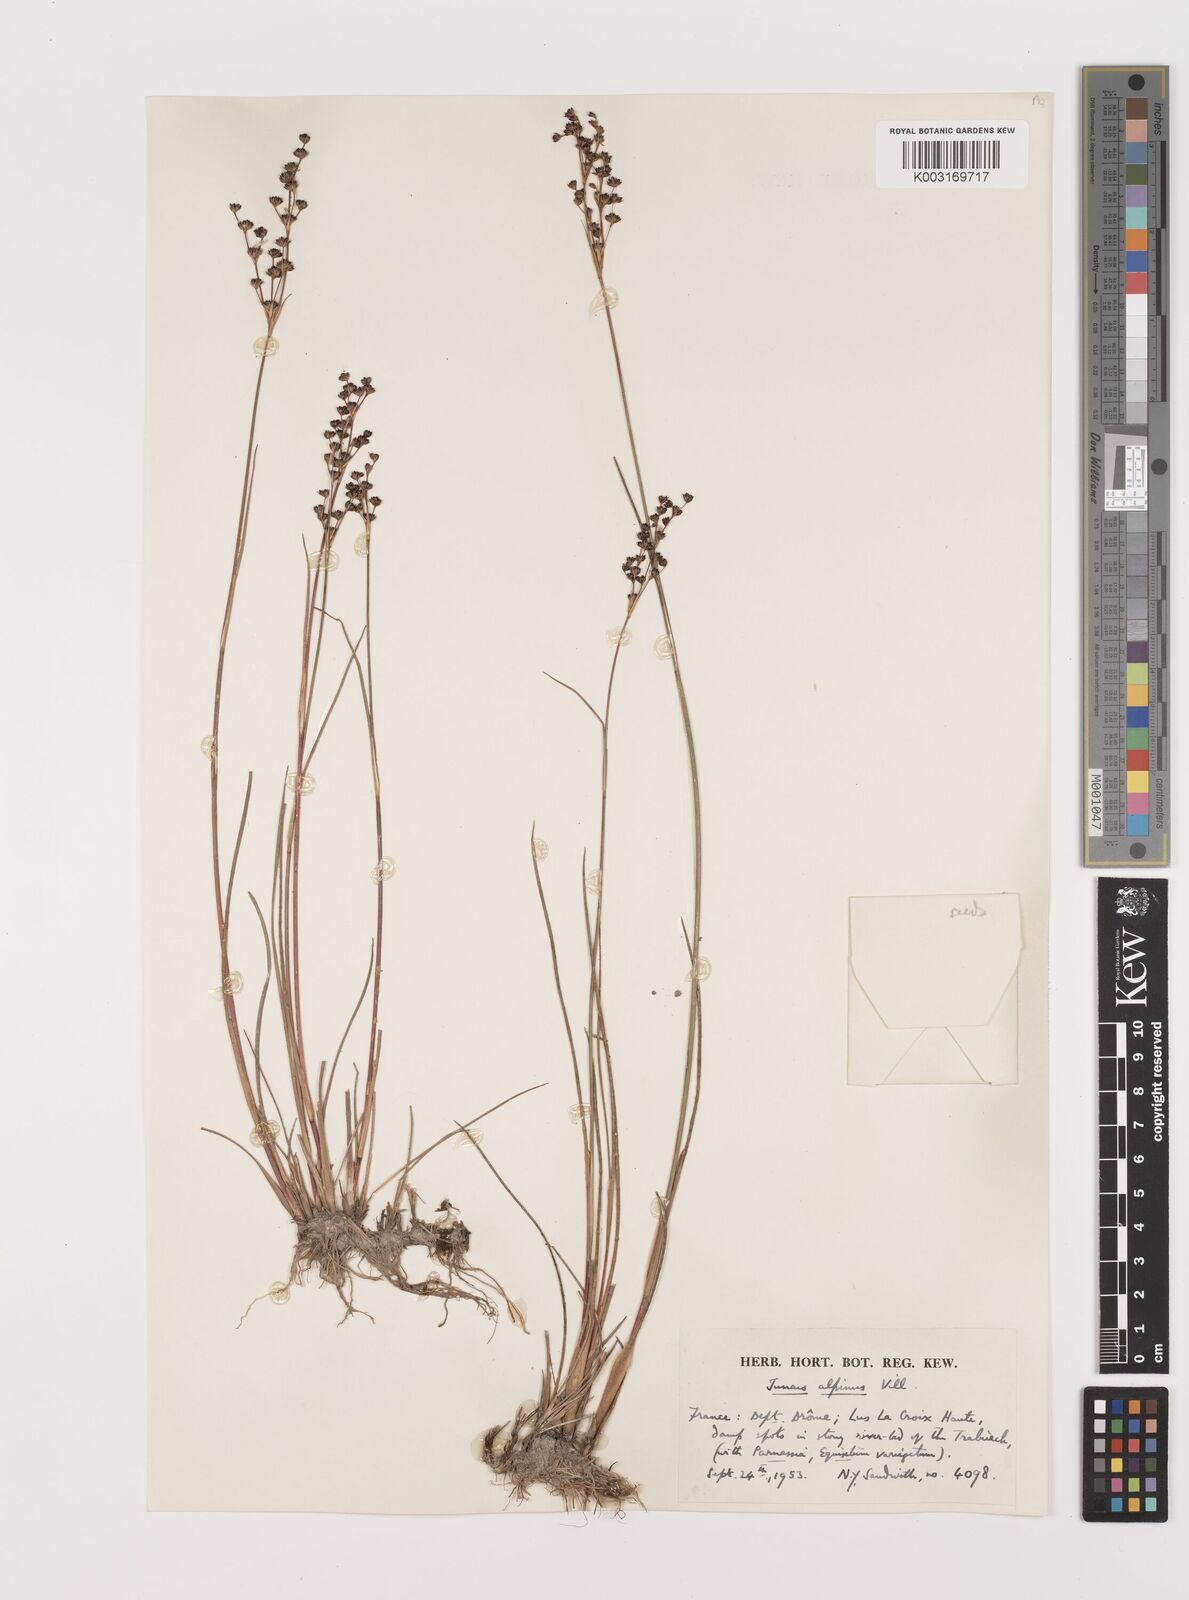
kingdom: Plantae
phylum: Tracheophyta
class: Liliopsida
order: Poales
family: Juncaceae
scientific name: Juncaceae
